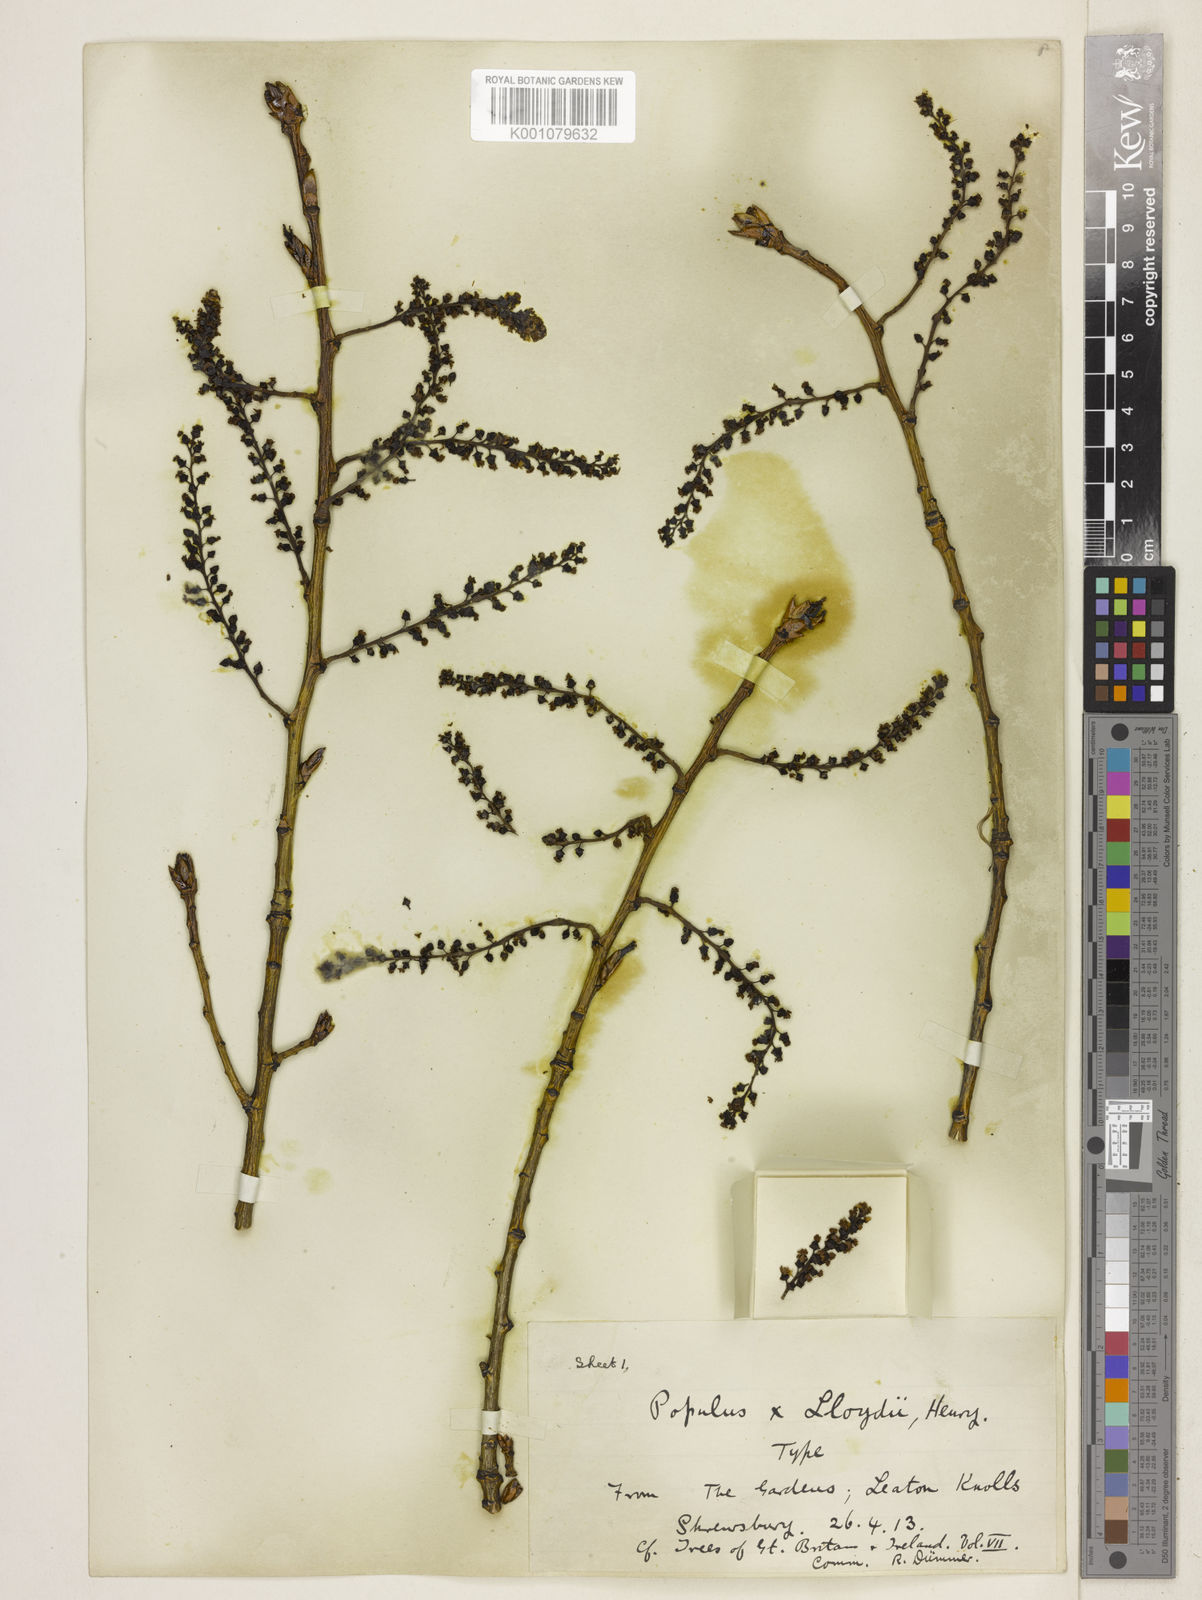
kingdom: Plantae
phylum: Tracheophyta
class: Magnoliopsida
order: Malpighiales
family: Salicaceae
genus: Populus
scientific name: Populus
